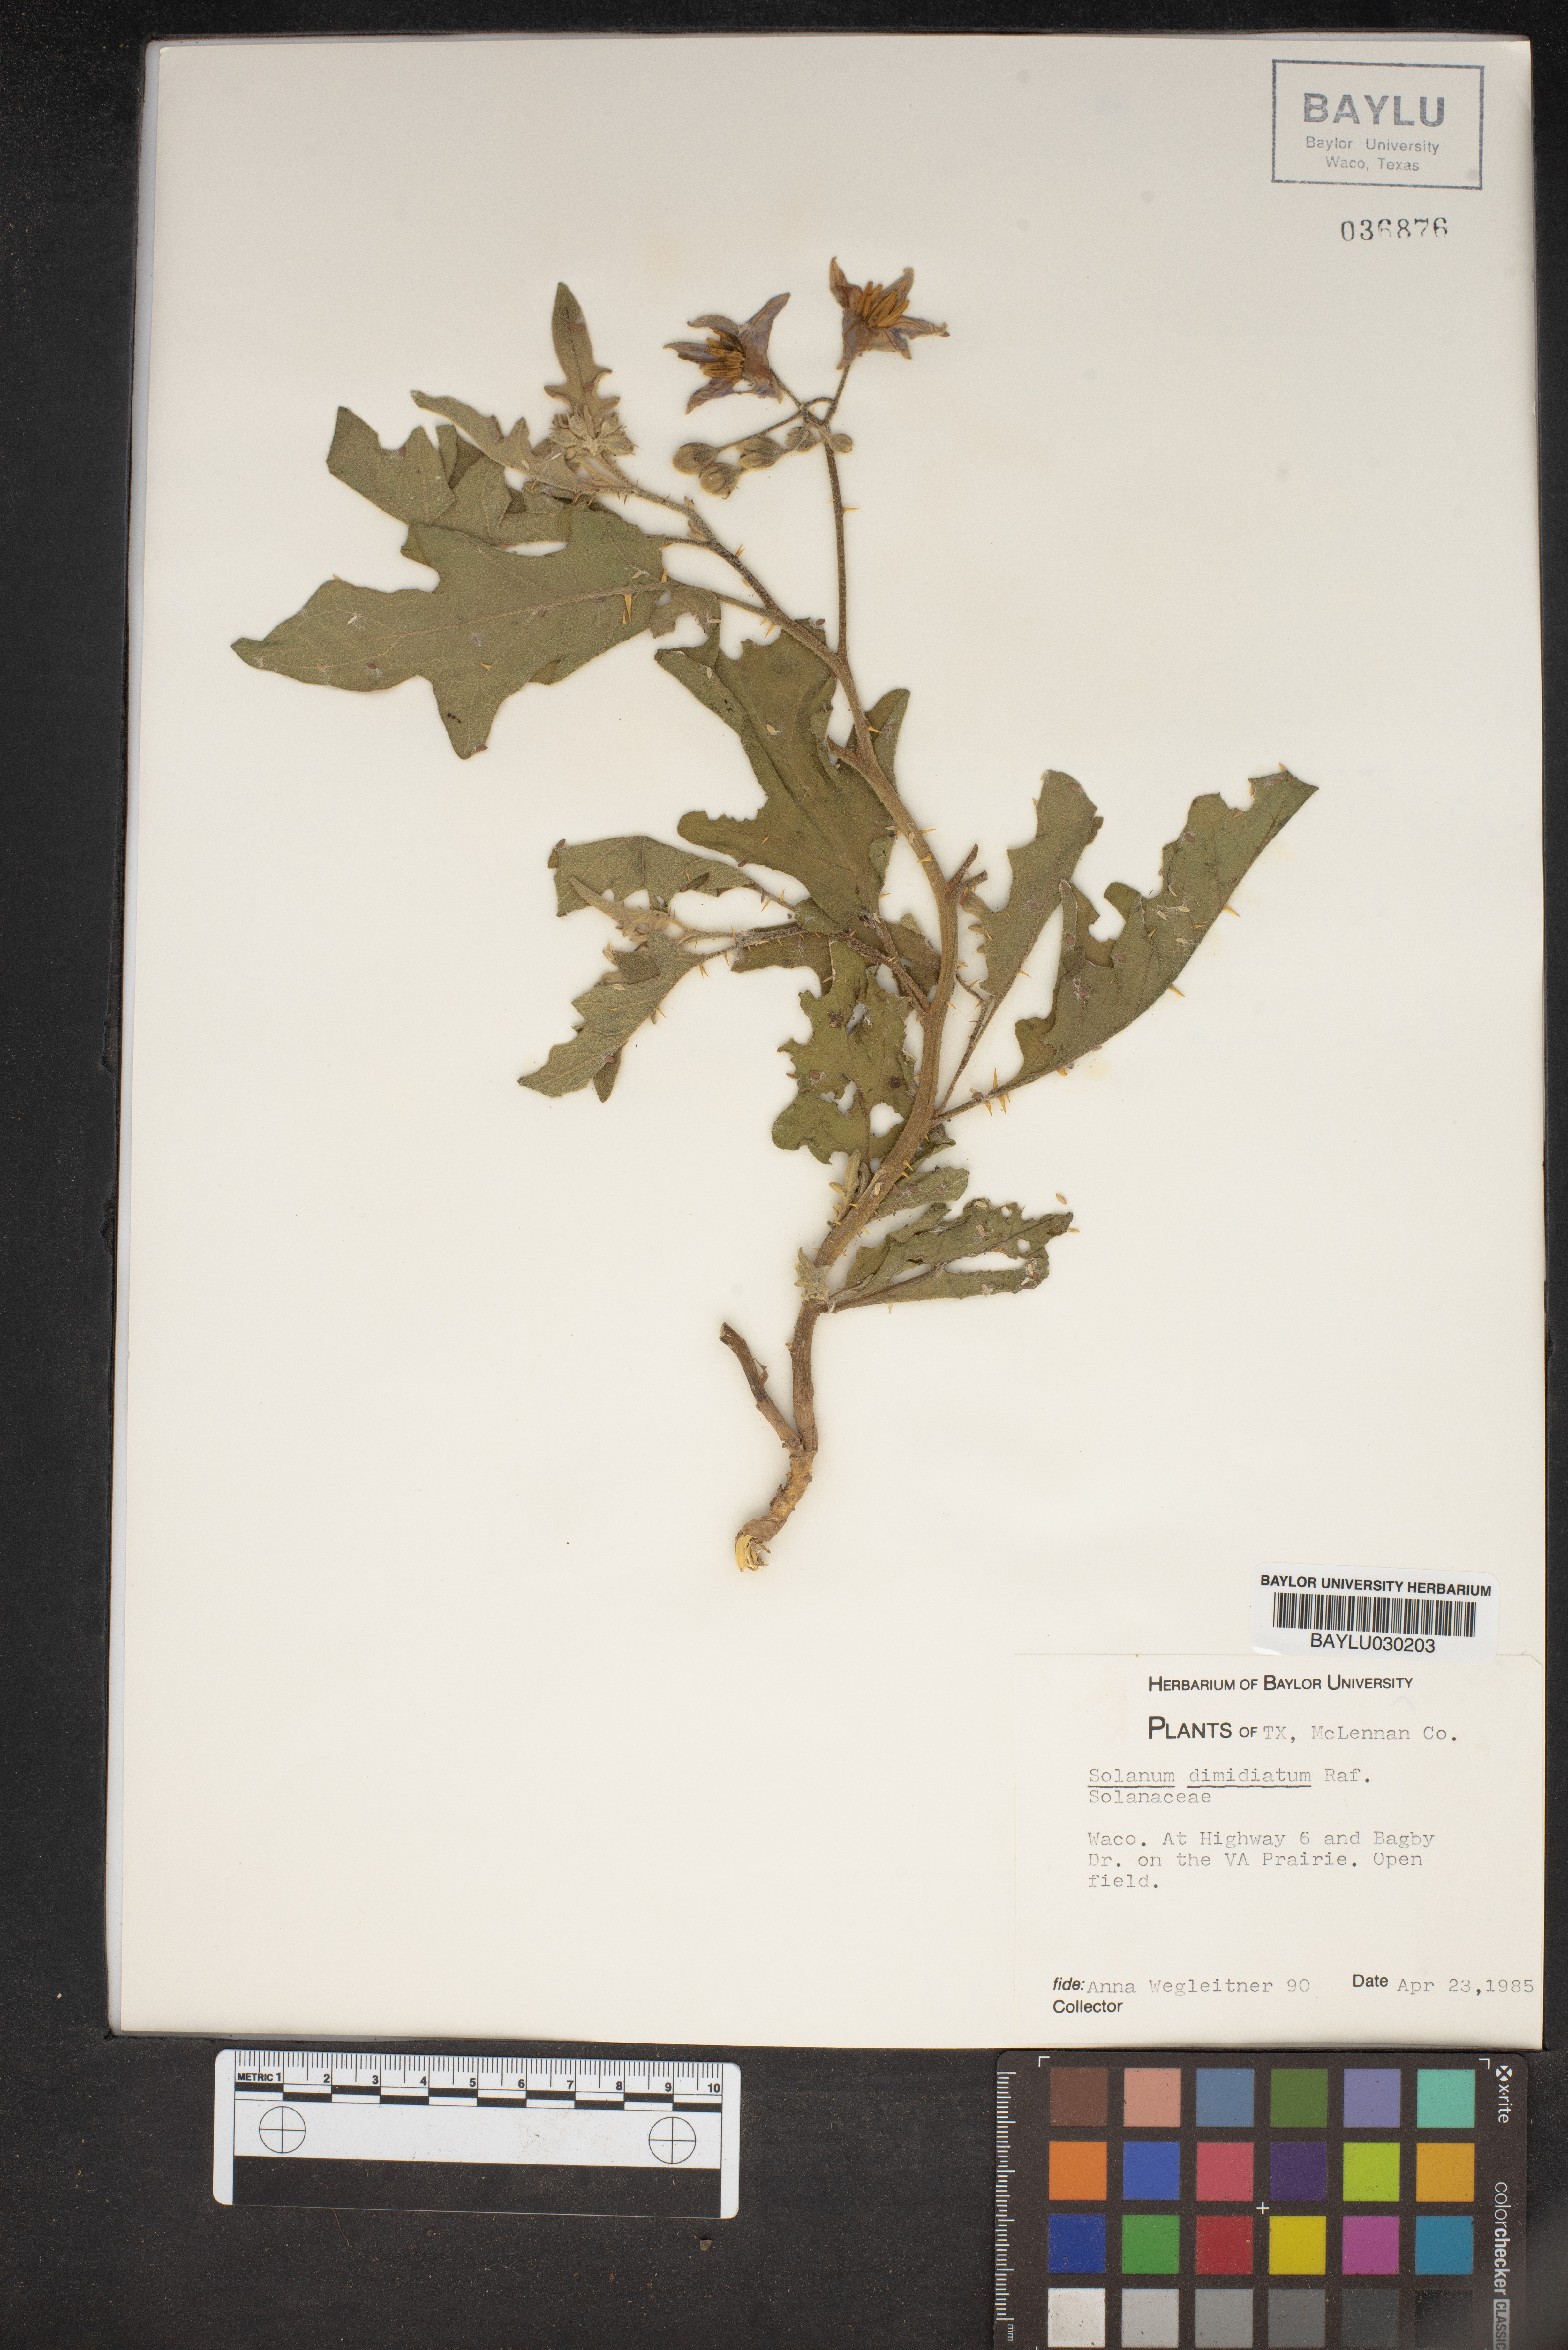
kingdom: Plantae
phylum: Tracheophyta
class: Magnoliopsida
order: Solanales
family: Solanaceae
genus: Solanum
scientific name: Solanum dimidiatum
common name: Carolina horse-nettle
